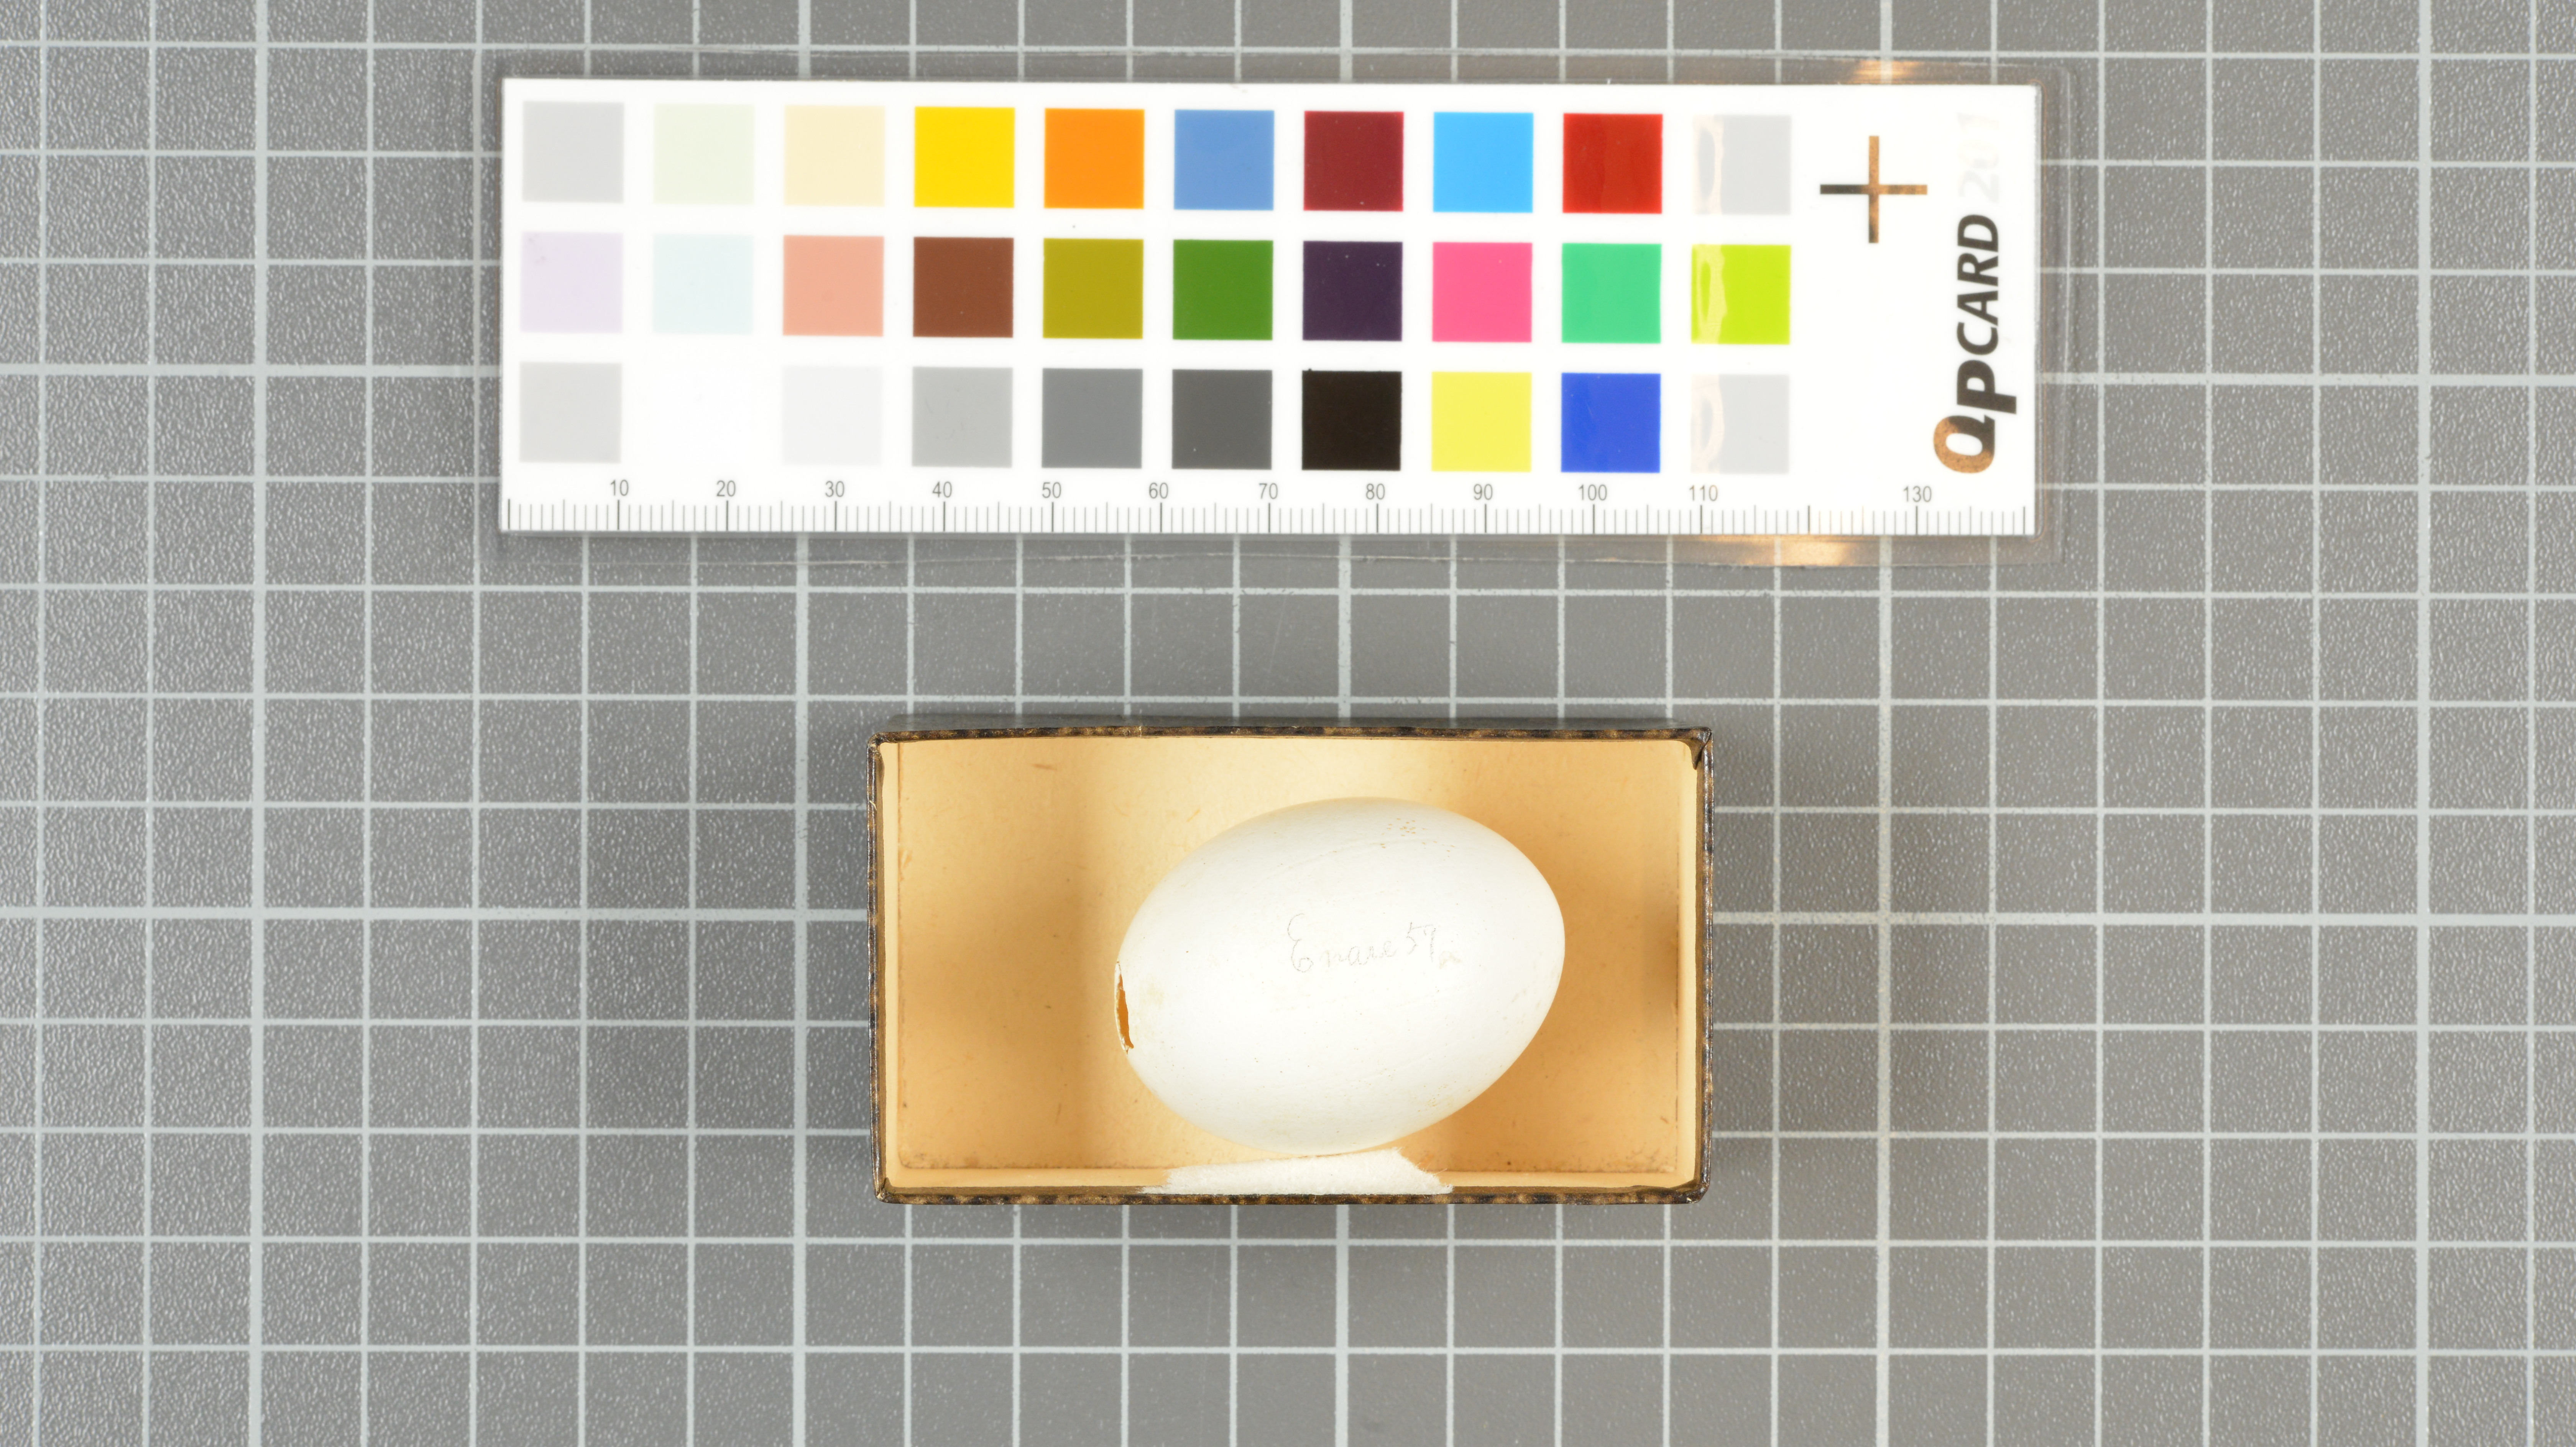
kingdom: Animalia
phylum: Chordata
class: Aves
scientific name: Aves
